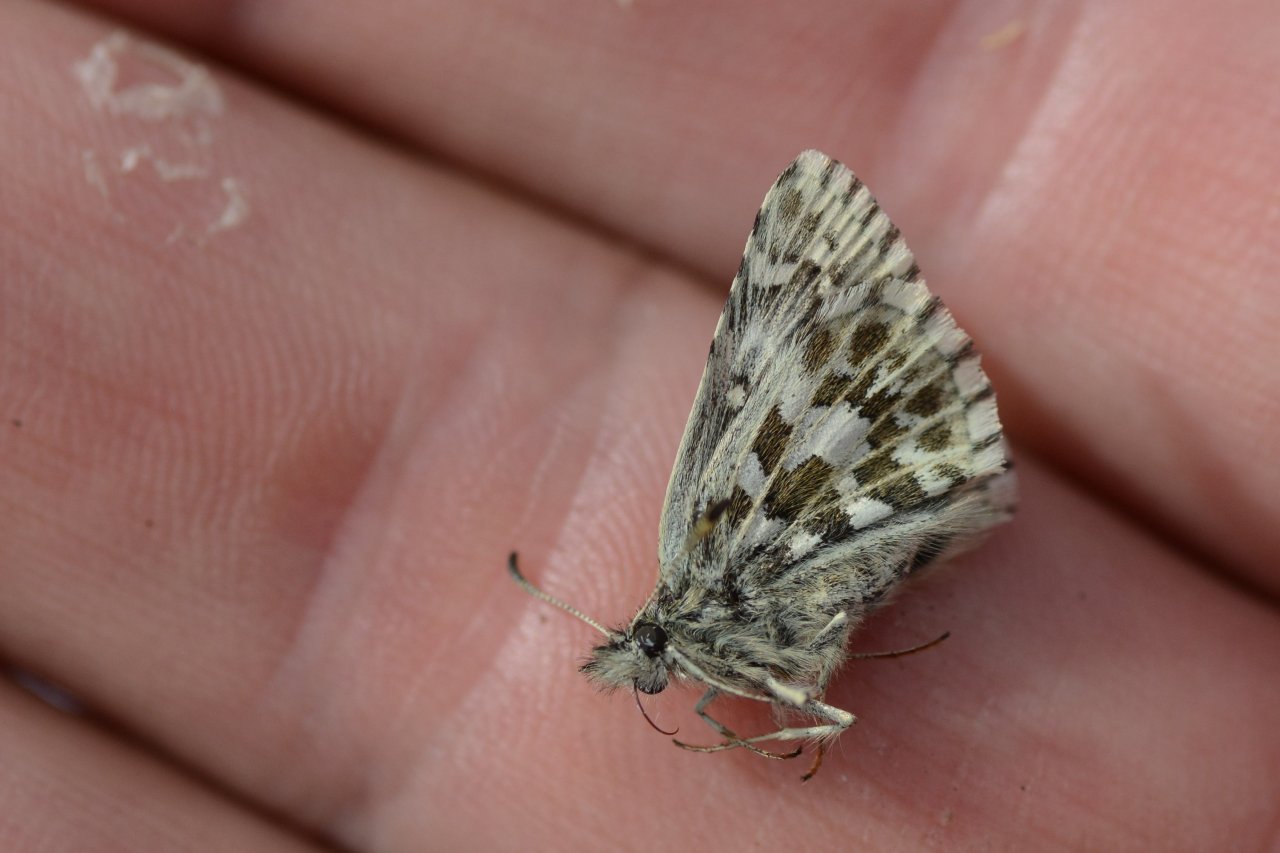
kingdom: Animalia
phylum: Arthropoda
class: Insecta
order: Lepidoptera
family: Hesperiidae
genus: Pyrgus
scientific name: Pyrgus centaureae
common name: Grizzled Skipper
